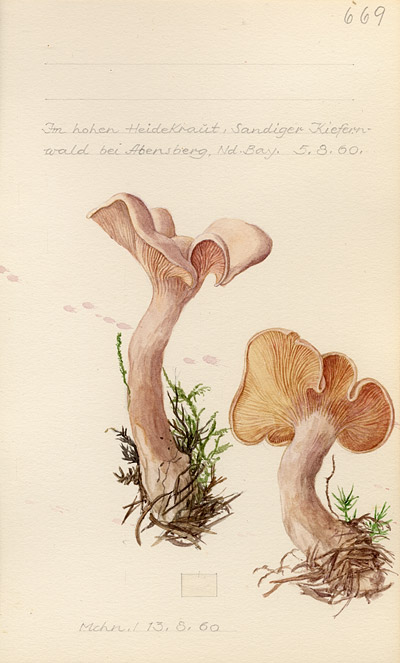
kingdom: Fungi
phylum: Basidiomycota
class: Agaricomycetes
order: Agaricales
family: Entolomataceae
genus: Clitopilus
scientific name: Clitopilus prunulus
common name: The miller
